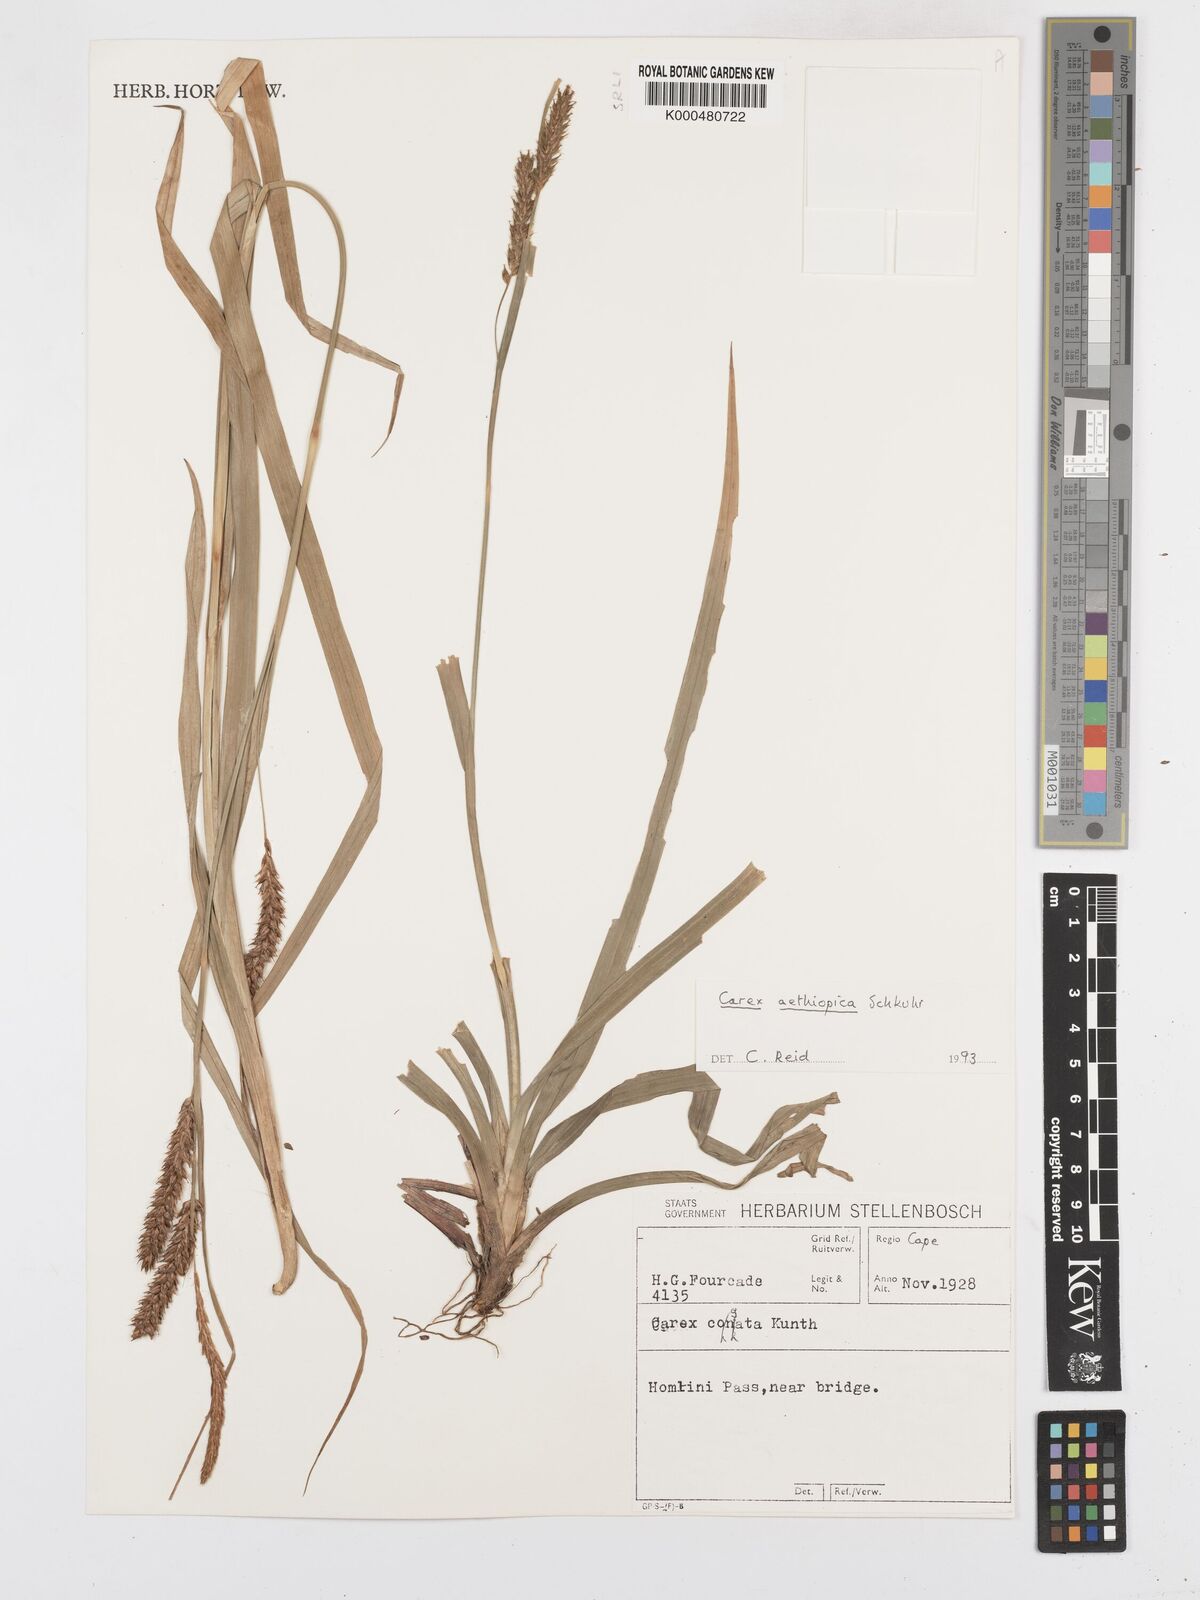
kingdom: Plantae
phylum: Tracheophyta
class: Liliopsida
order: Poales
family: Cyperaceae
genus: Carex
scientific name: Carex aethiopica
